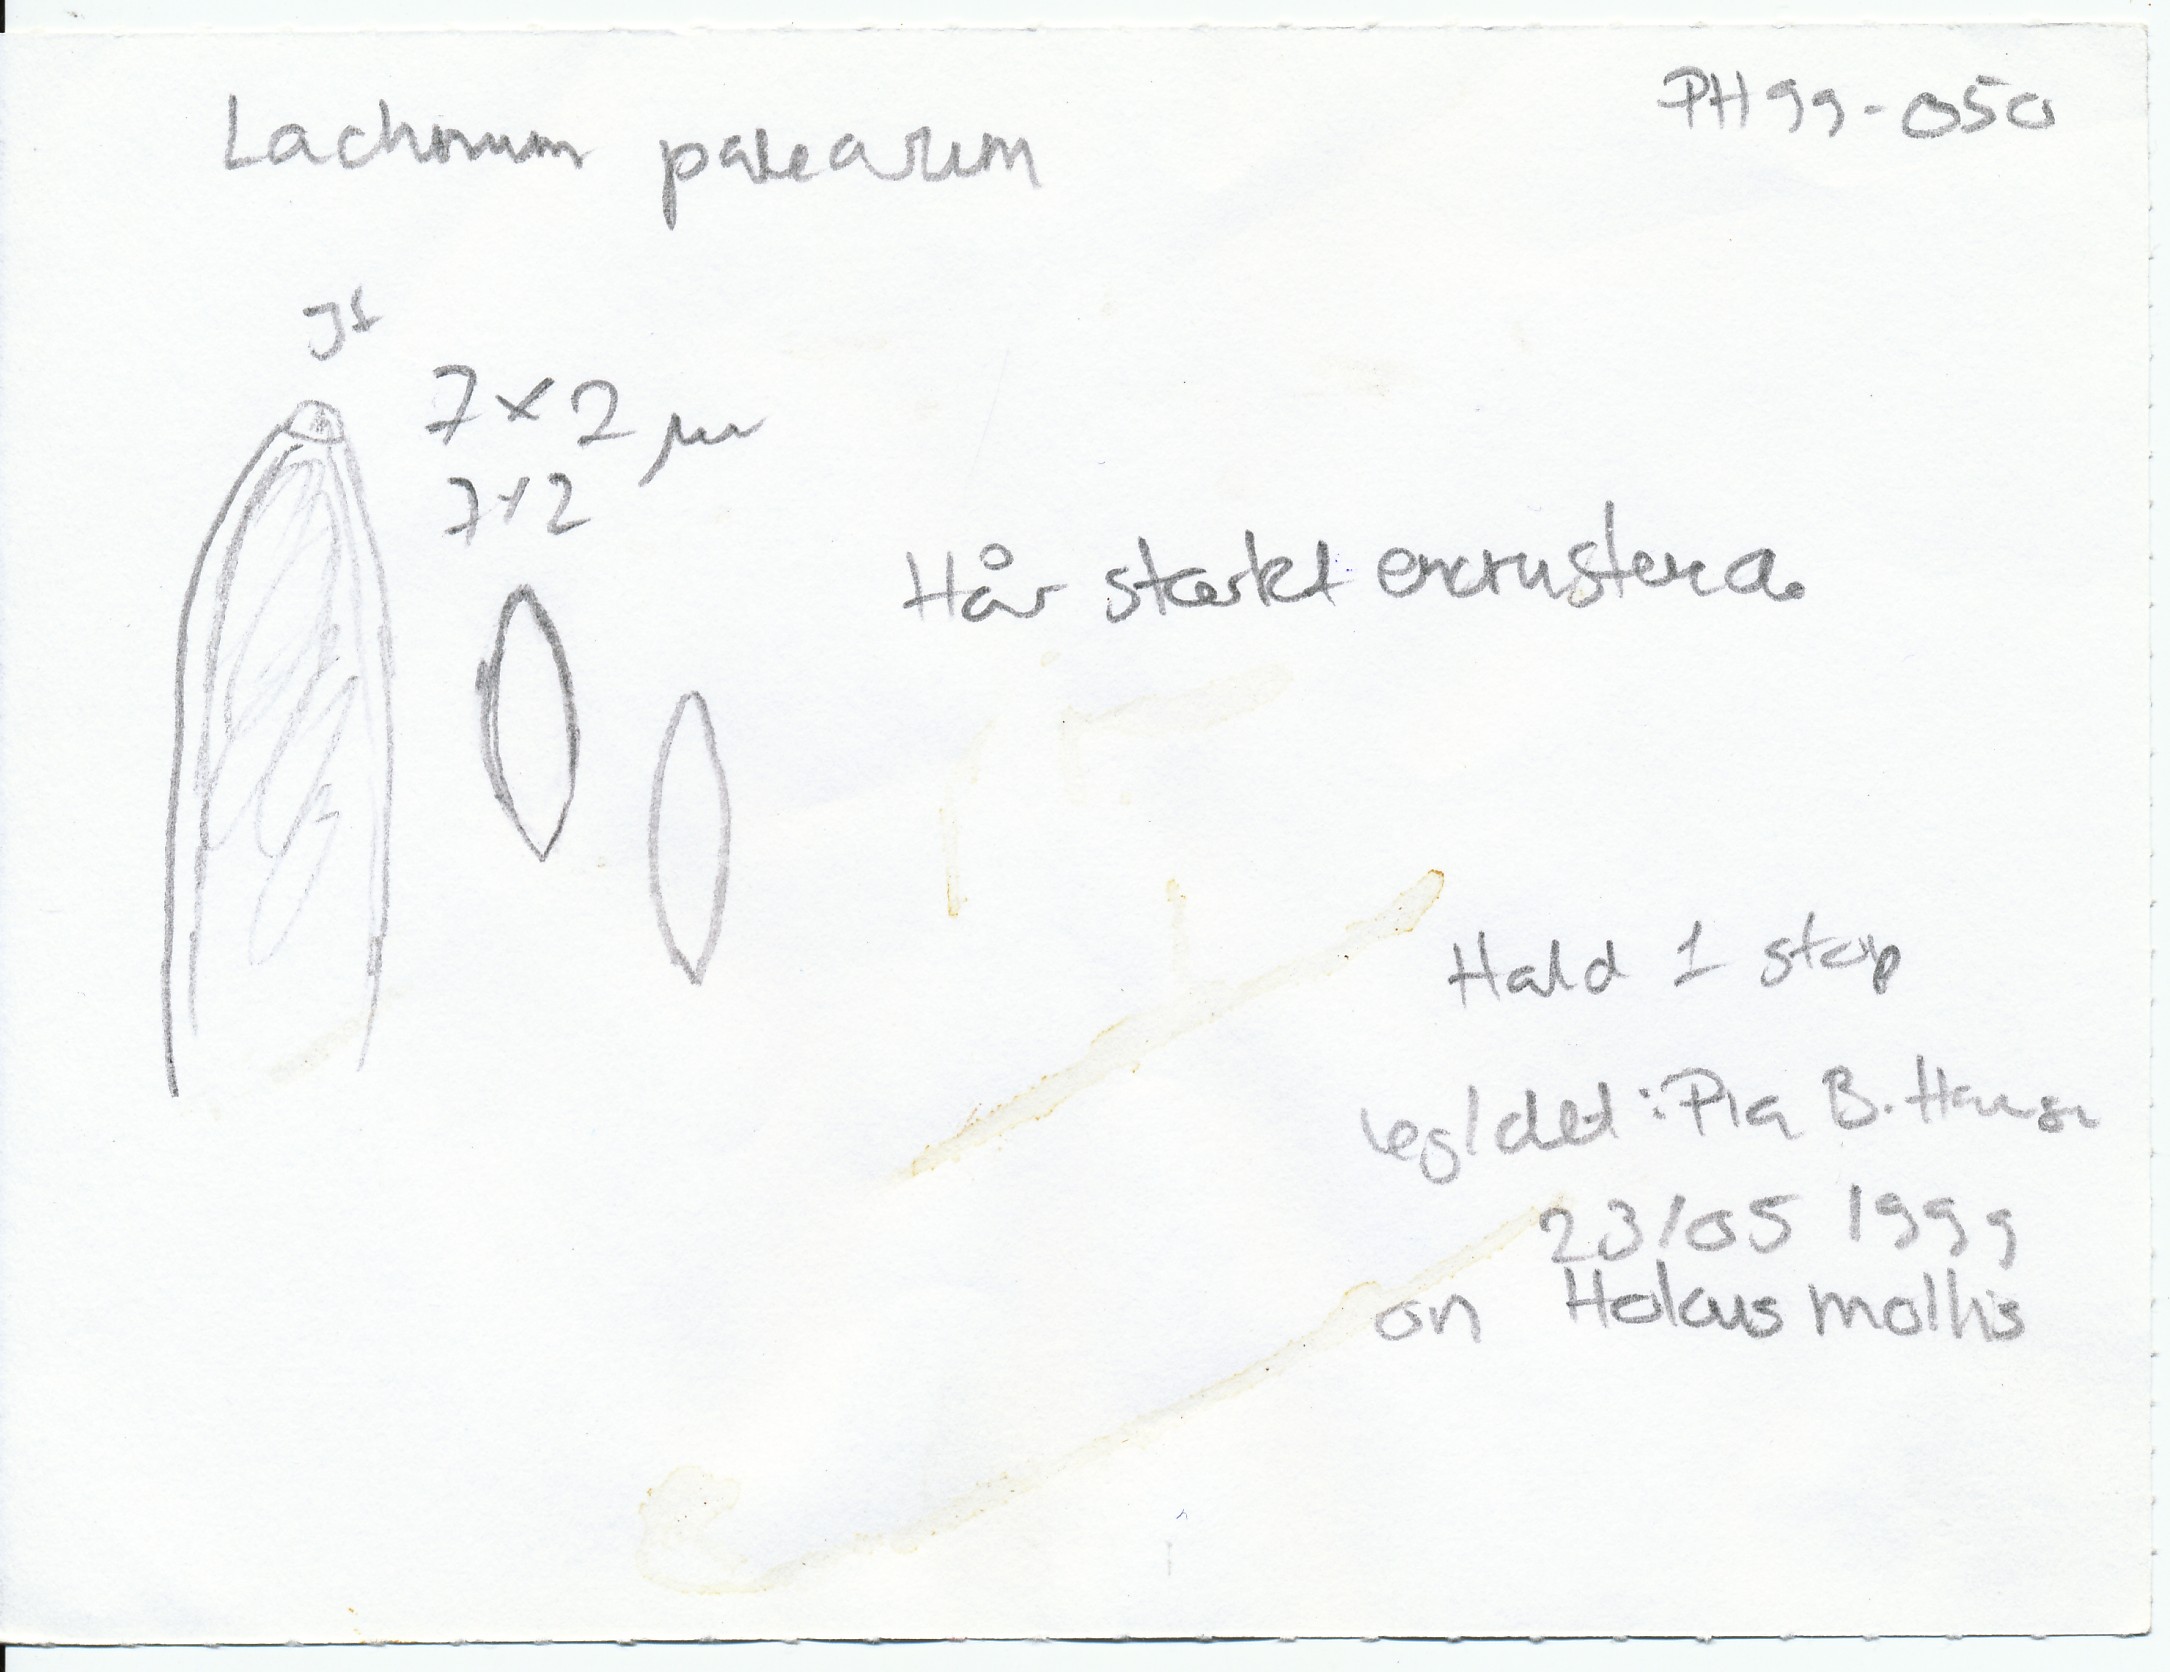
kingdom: Fungi
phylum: Ascomycota
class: Leotiomycetes
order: Helotiales
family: Lachnaceae
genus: Brunnipila
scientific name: Brunnipila palearum
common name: brunhåret frynseskive
